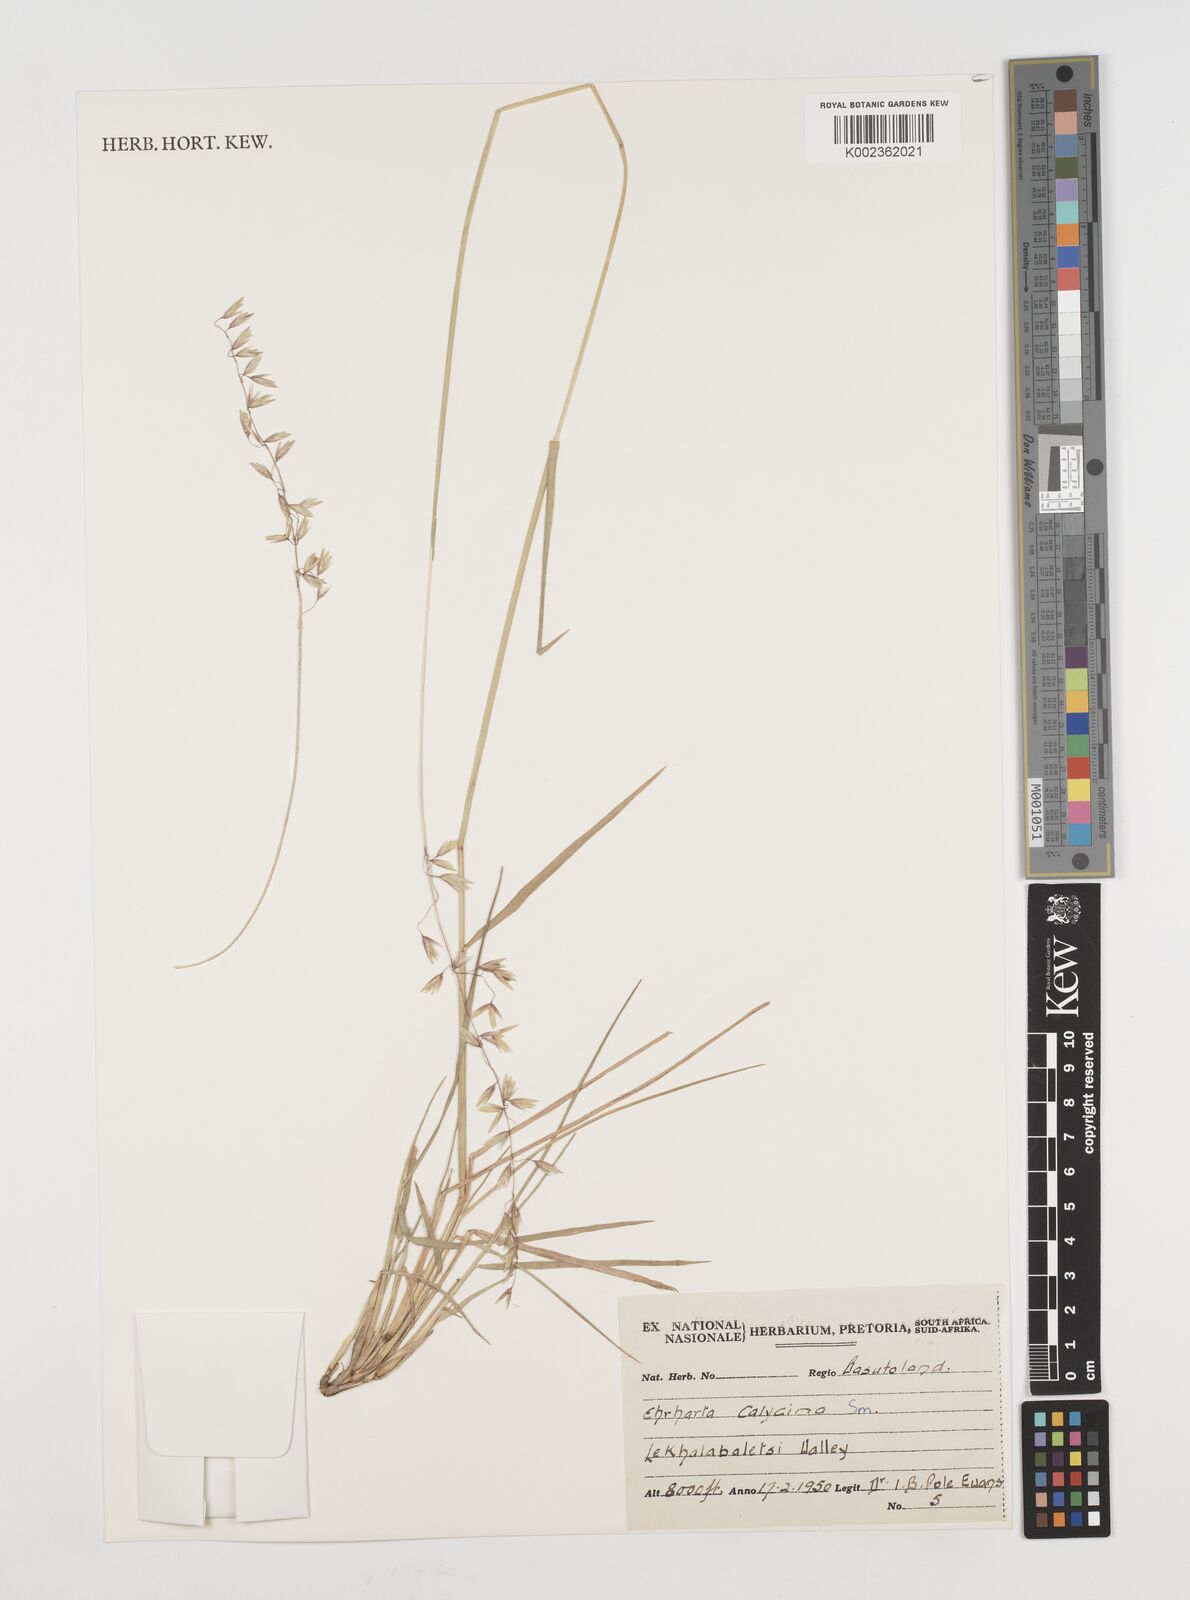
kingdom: Plantae
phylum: Tracheophyta
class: Liliopsida
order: Poales
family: Poaceae
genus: Ehrharta
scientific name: Ehrharta calycina
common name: Perennial veldtgrass
